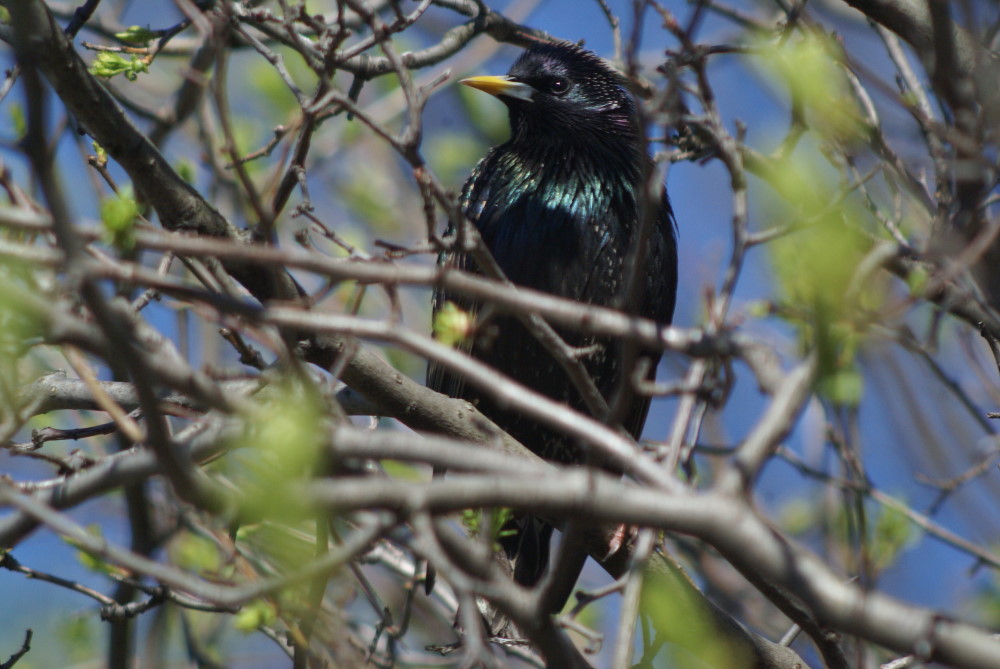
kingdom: Animalia
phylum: Chordata
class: Aves
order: Passeriformes
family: Sturnidae
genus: Sturnus
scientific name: Sturnus vulgaris
